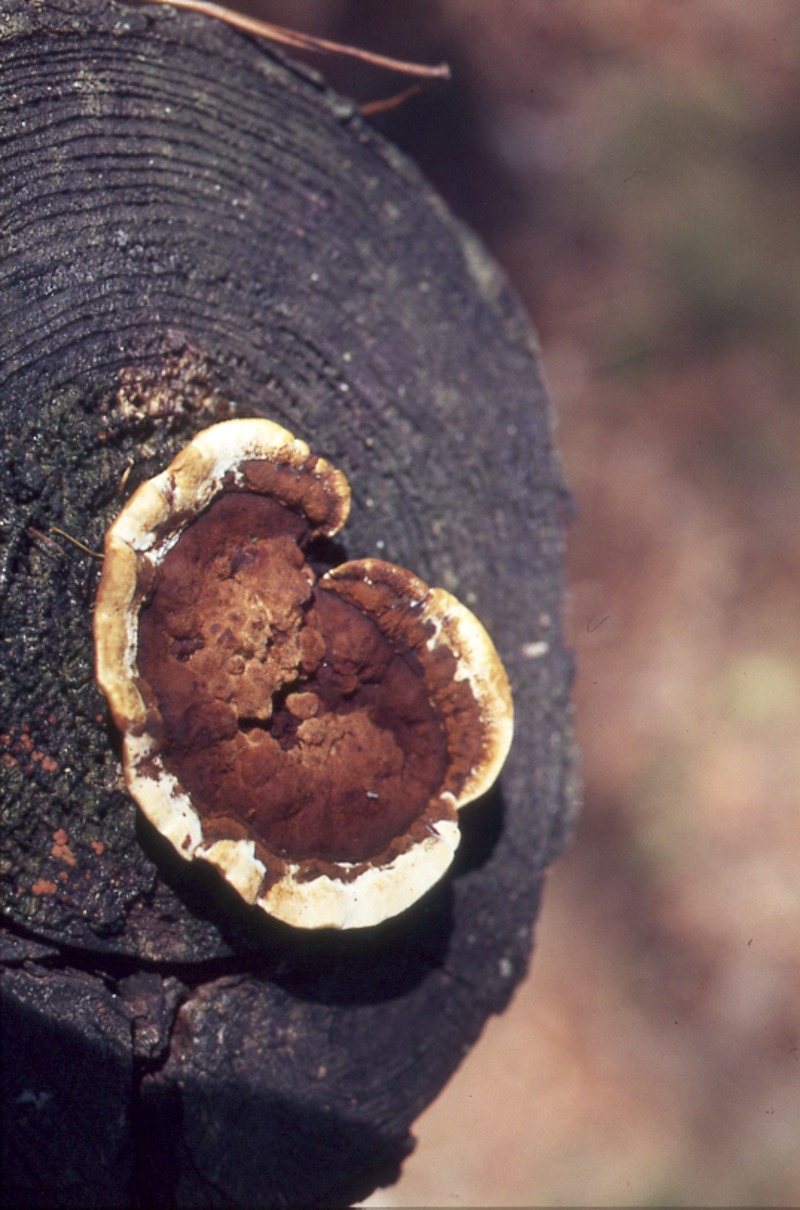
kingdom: Plantae
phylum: Tracheophyta
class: Pinopsida
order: Pinales
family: Pinaceae
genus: Pinus
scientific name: Pinus sylvestris
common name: Scots pine
